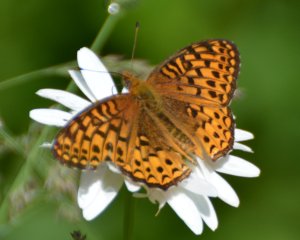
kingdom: Animalia
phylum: Arthropoda
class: Insecta
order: Lepidoptera
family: Nymphalidae
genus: Speyeria
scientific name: Speyeria atlantis
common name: Atlantis Fritillary
